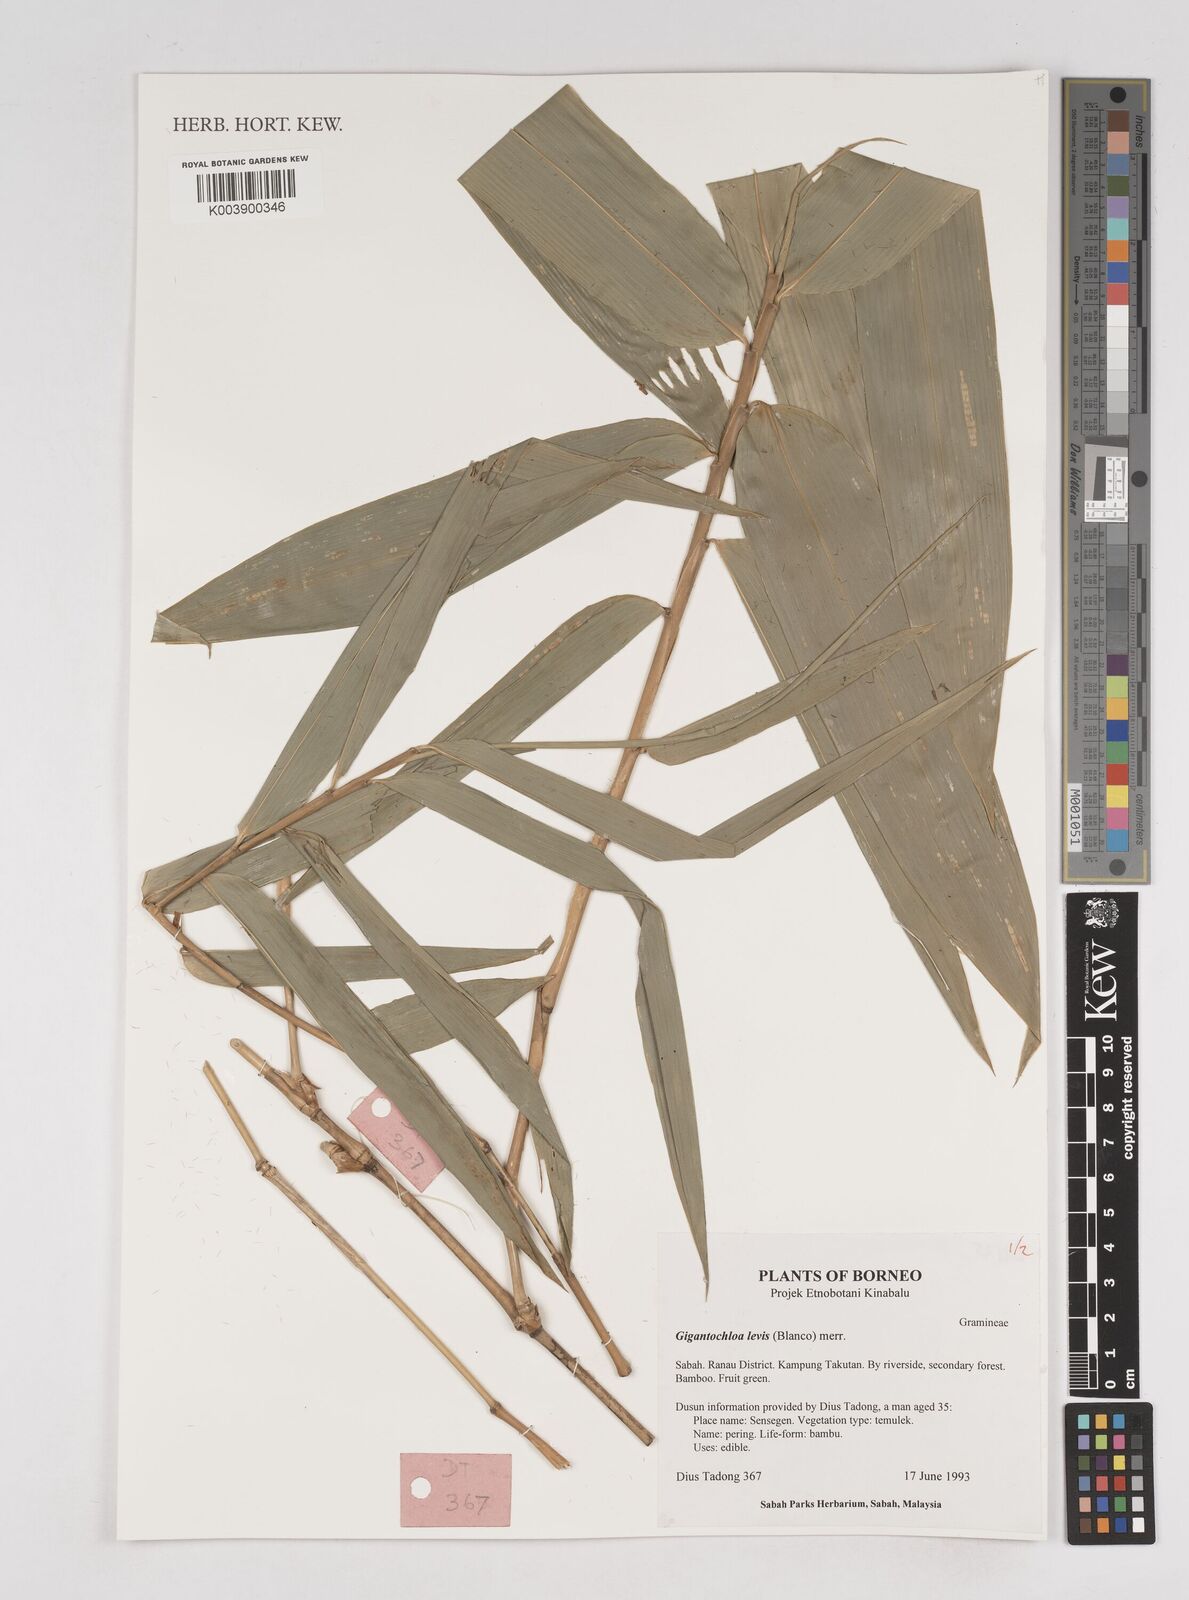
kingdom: Plantae
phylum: Tracheophyta
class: Liliopsida
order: Poales
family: Poaceae
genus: Gigantochloa
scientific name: Gigantochloa levis
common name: Smooth-shoot gigantochloa
